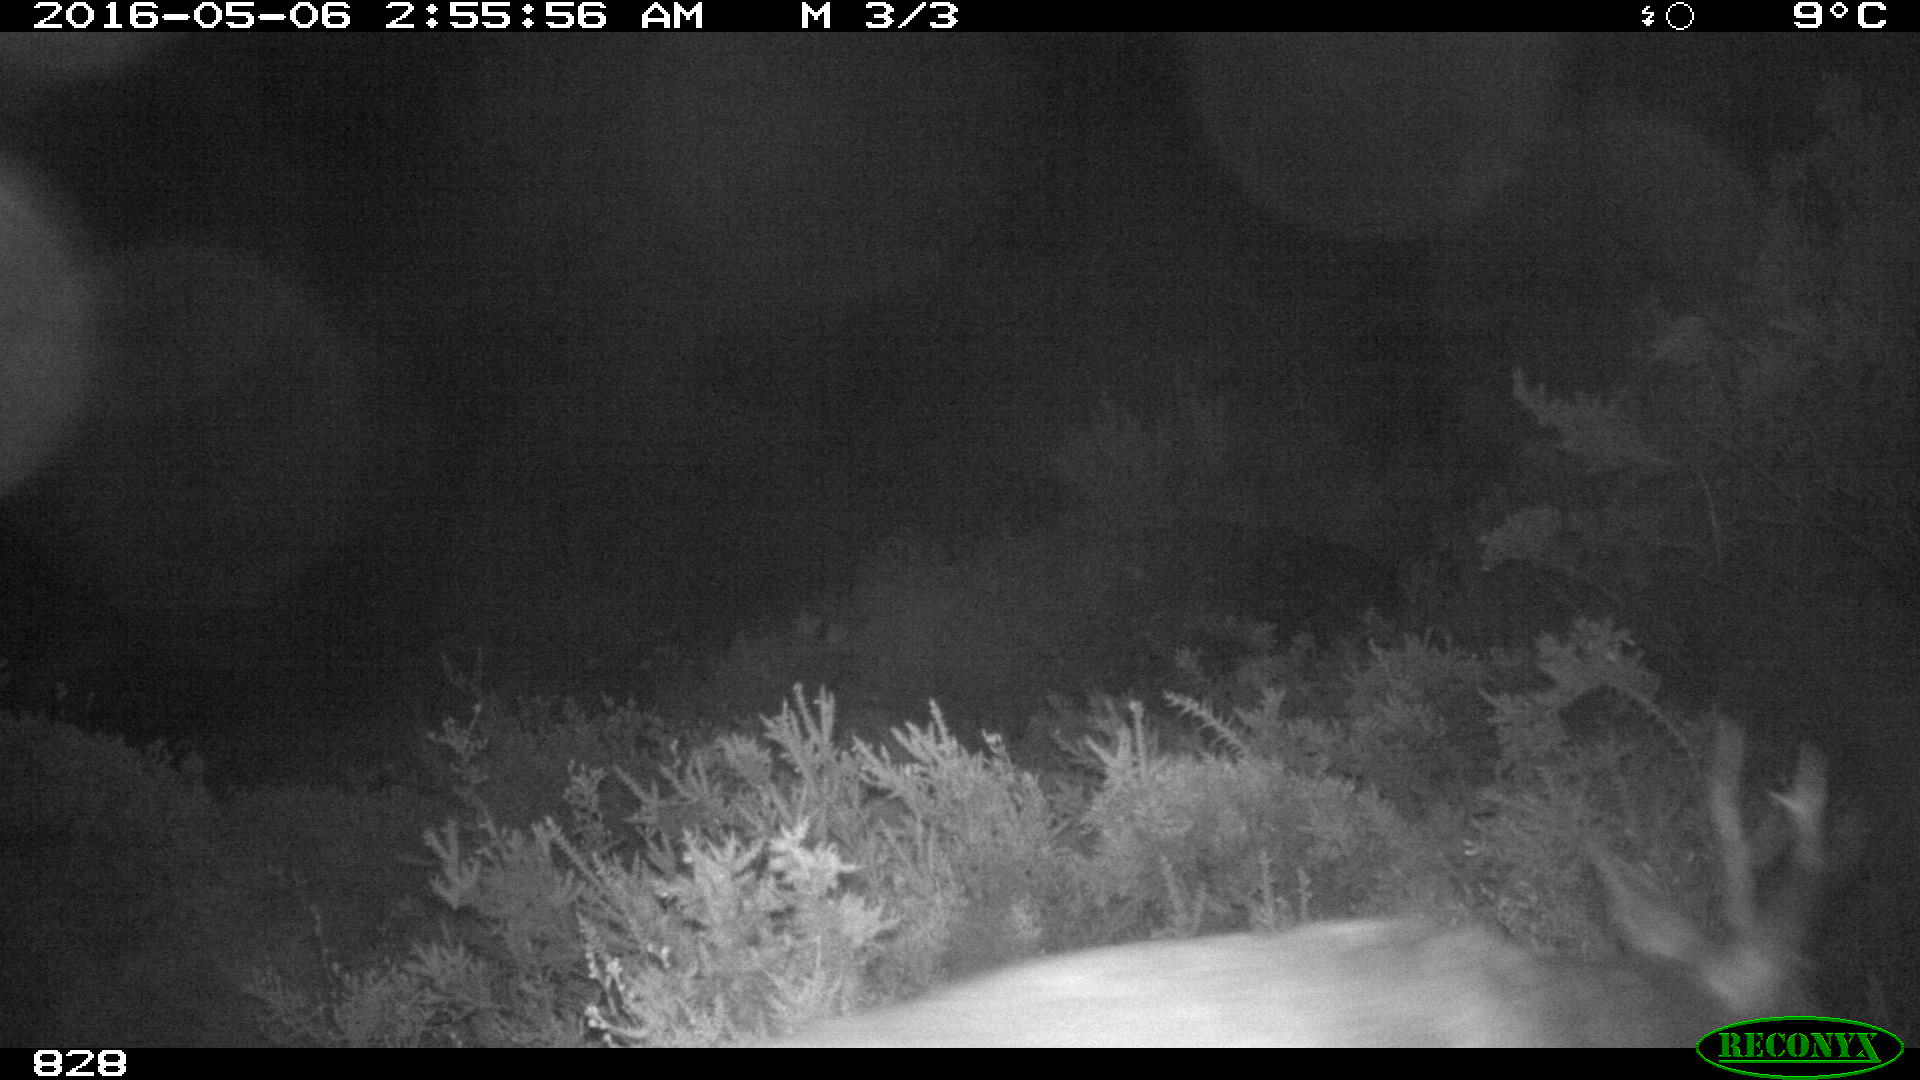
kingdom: Animalia
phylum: Chordata
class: Mammalia
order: Artiodactyla
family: Cervidae
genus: Capreolus
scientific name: Capreolus capreolus
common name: Western roe deer
